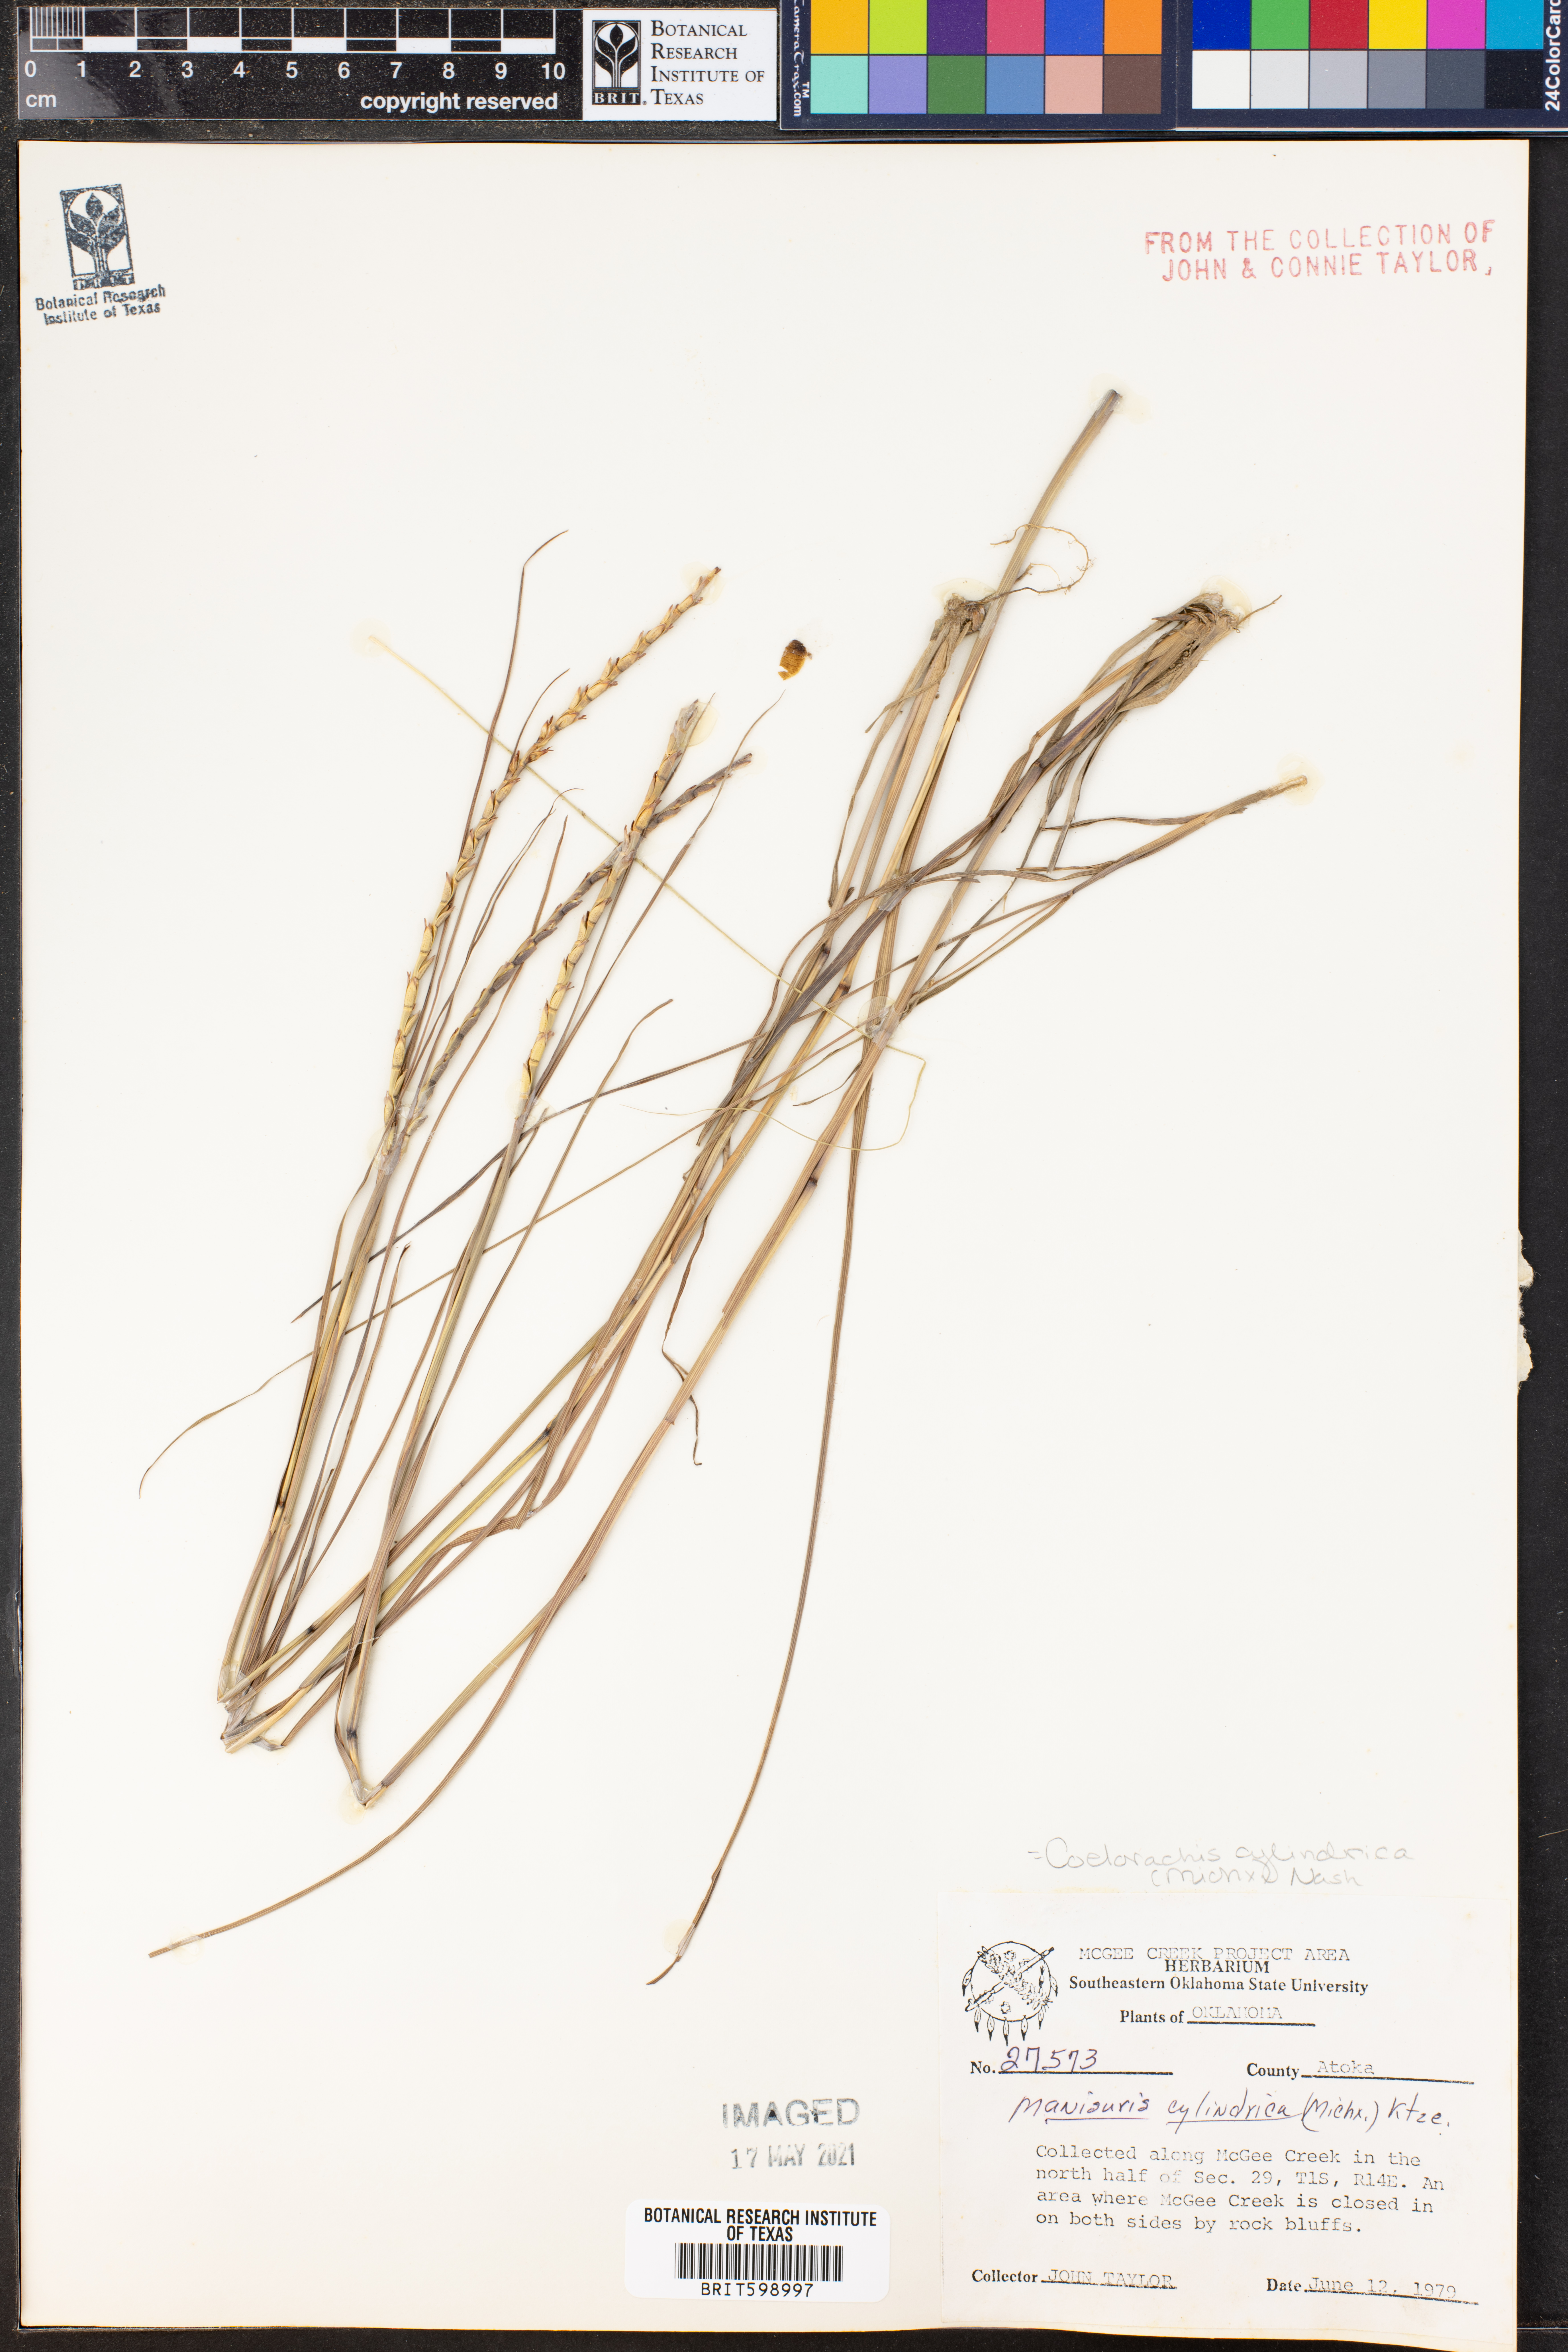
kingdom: Plantae
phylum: Tracheophyta
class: Liliopsida
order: Poales
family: Poaceae
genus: Rottboellia
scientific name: Rottboellia campestris
